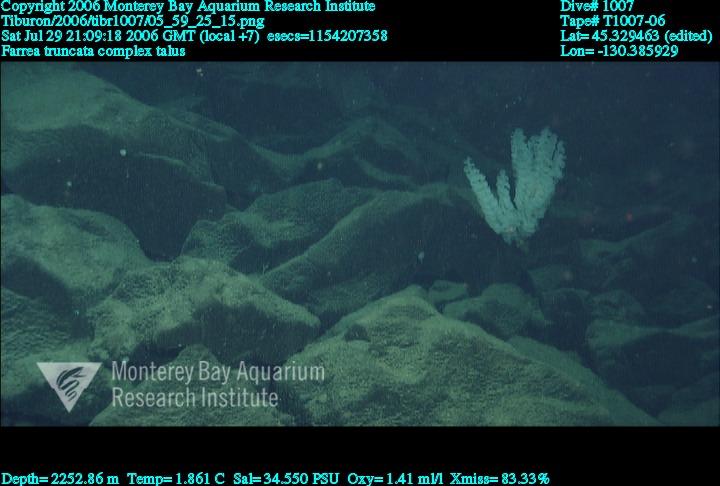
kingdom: Animalia
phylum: Porifera
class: Hexactinellida
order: Sceptrulophora
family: Farreidae
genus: Farrea
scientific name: Farrea truncata
